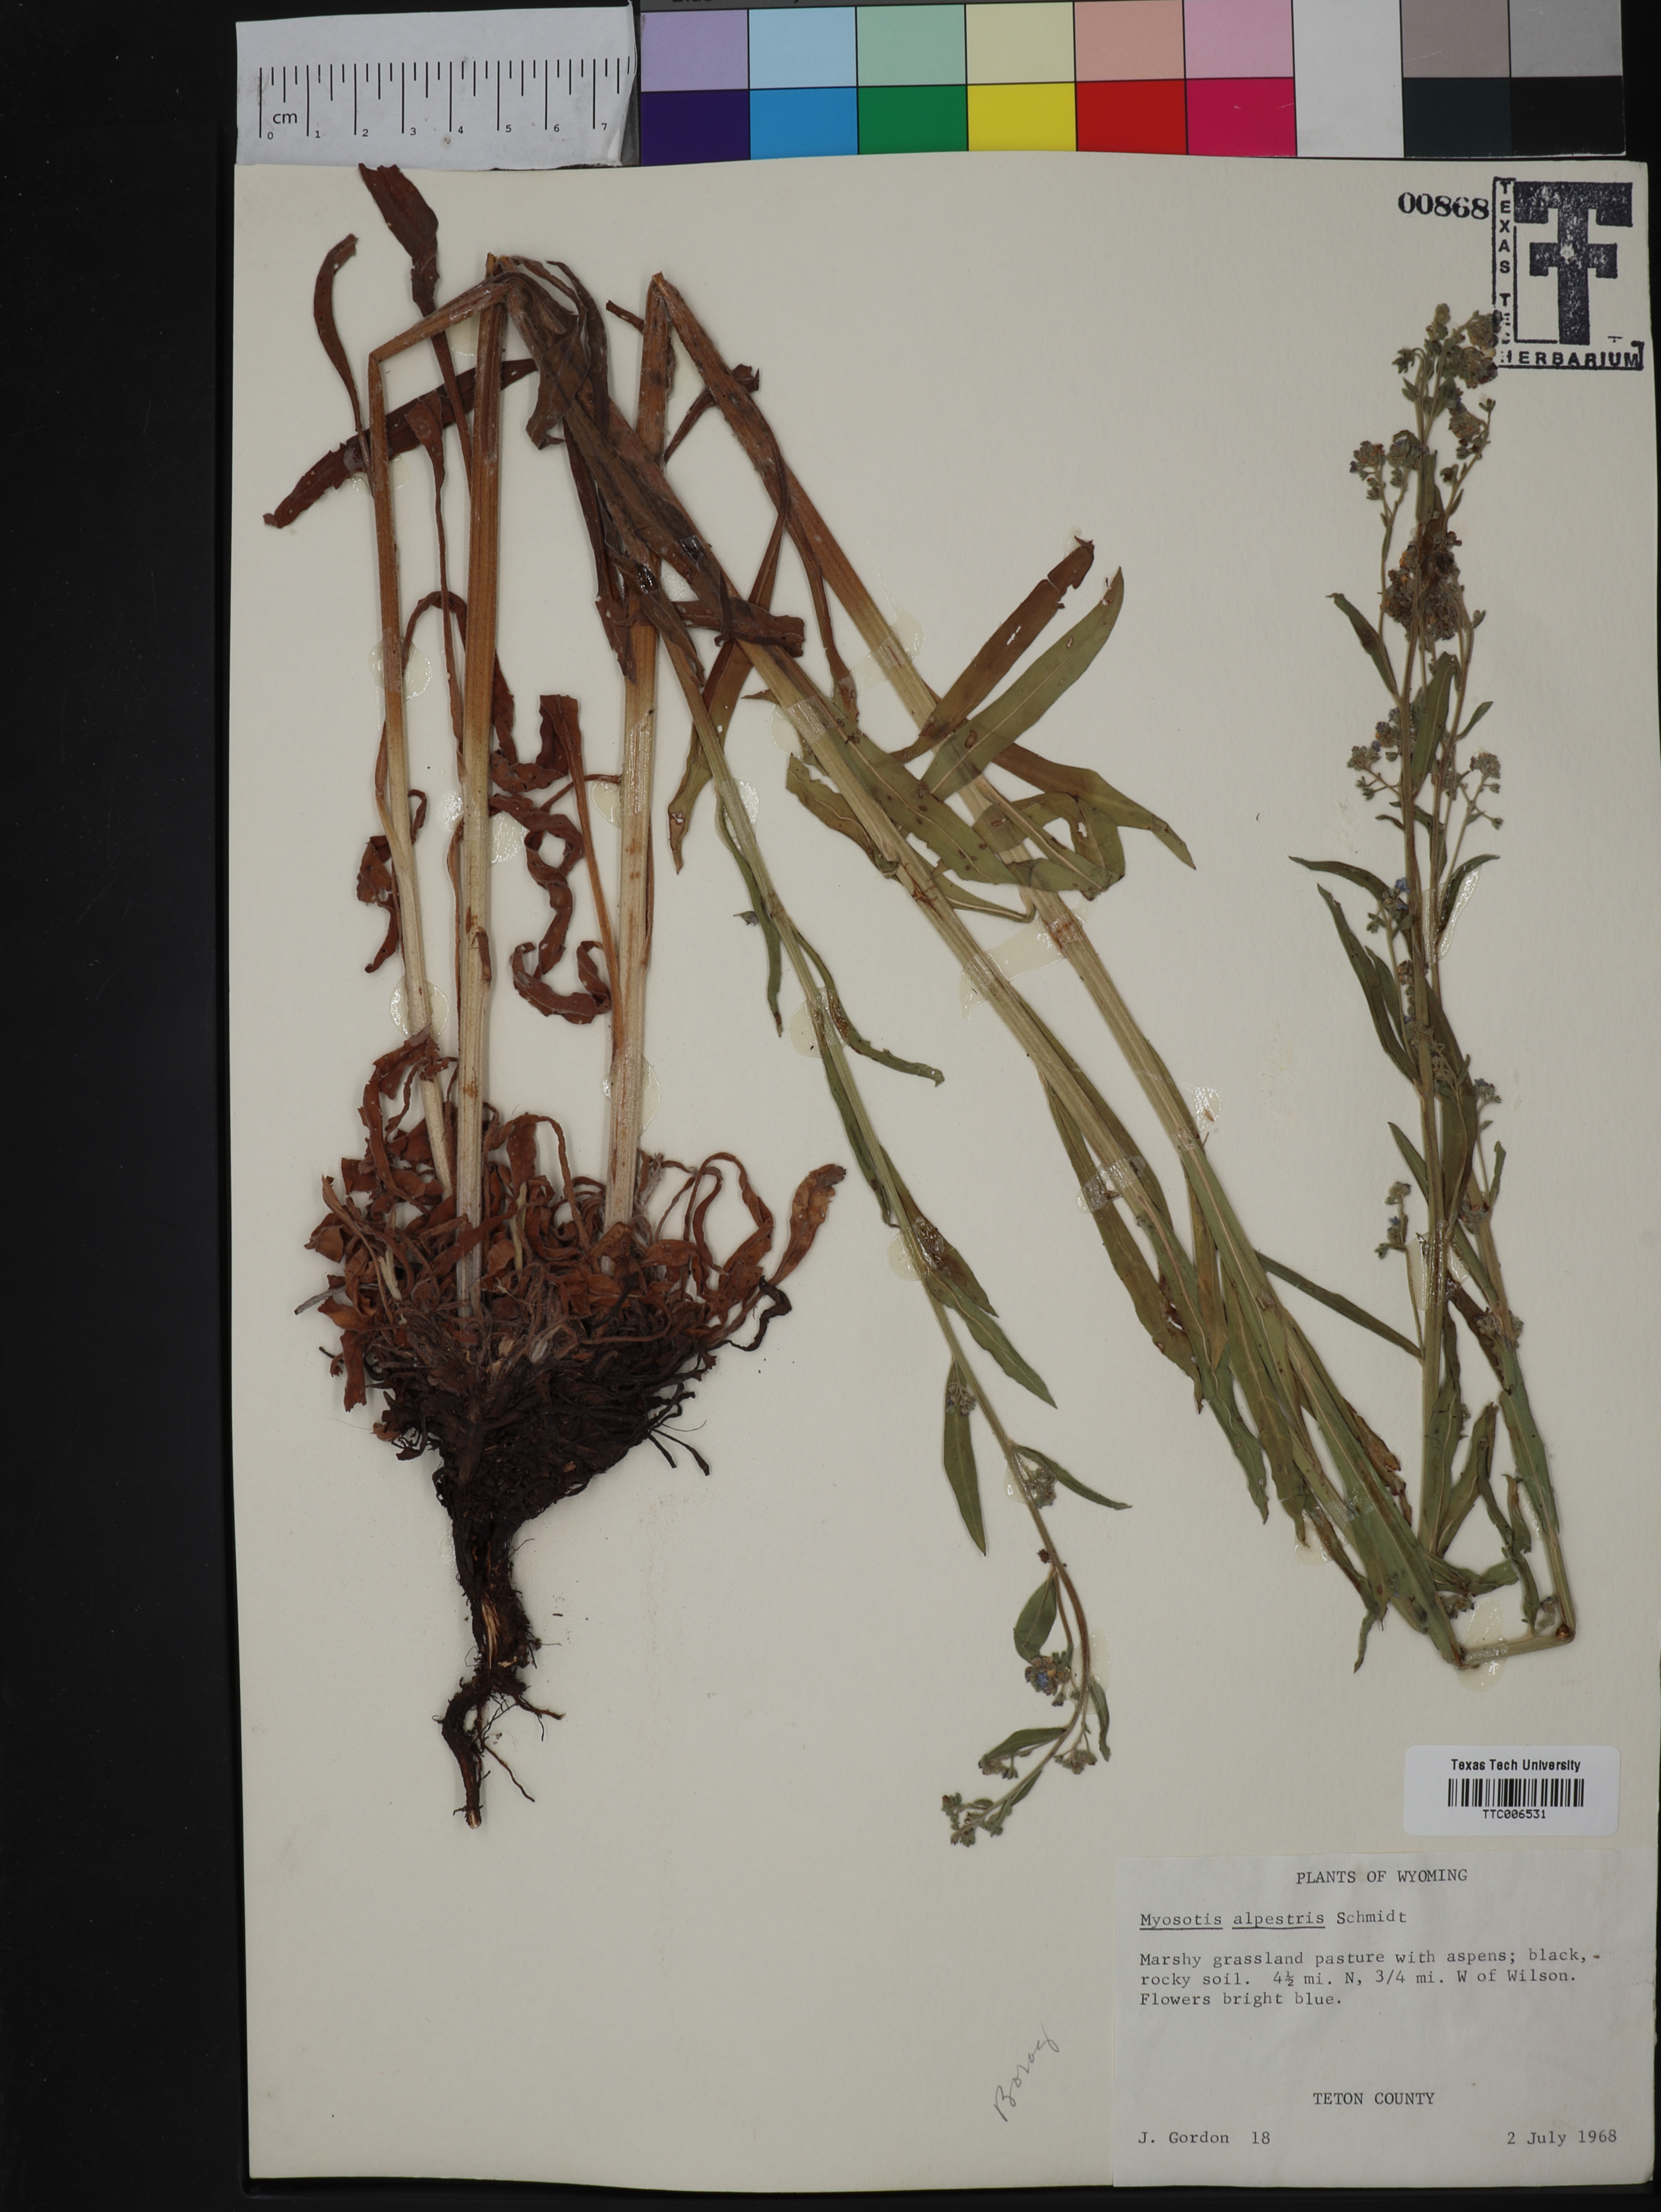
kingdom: Plantae
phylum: Tracheophyta
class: Magnoliopsida
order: Boraginales
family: Boraginaceae
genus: Myosotis
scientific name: Myosotis alpestris
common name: Alpine forget-me-not
